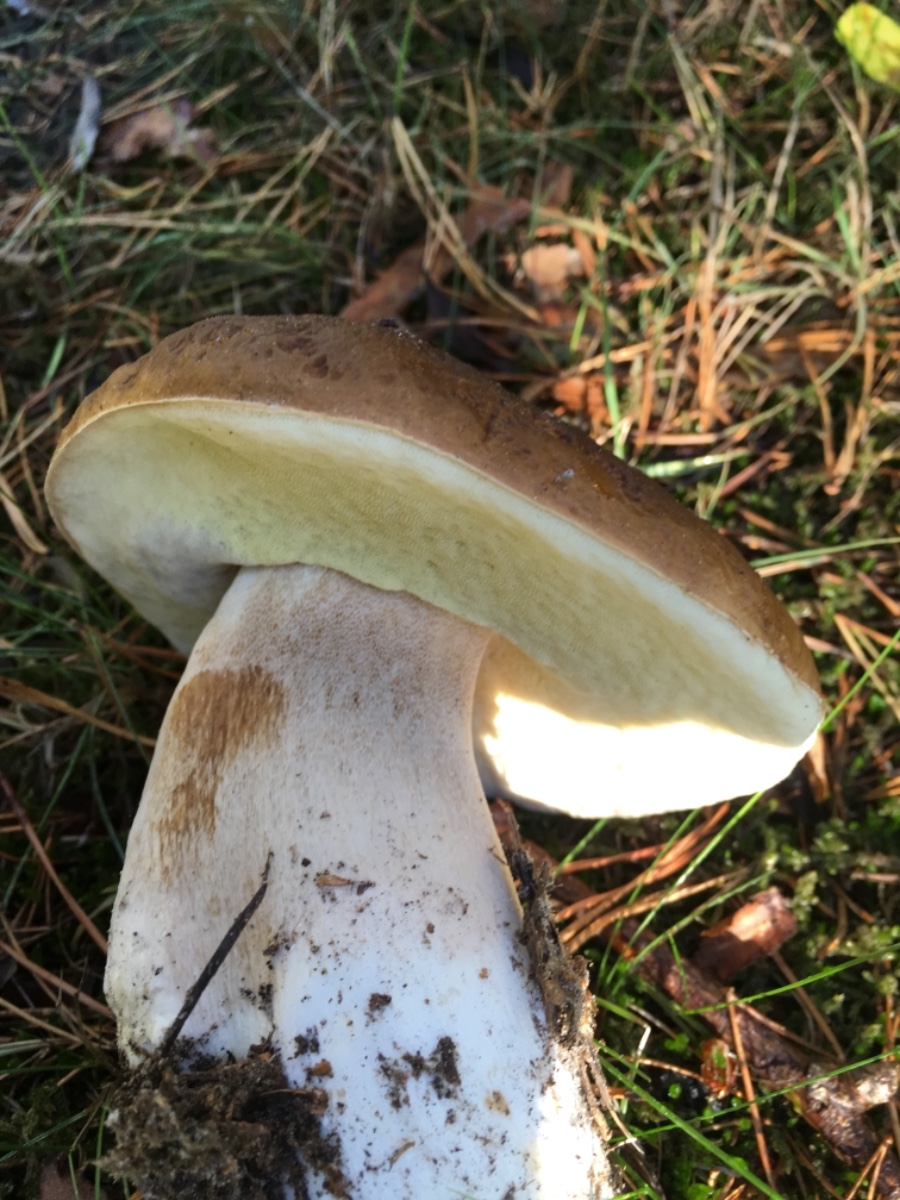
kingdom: Fungi
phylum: Basidiomycota
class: Agaricomycetes
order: Boletales
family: Boletaceae
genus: Boletus
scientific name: Boletus edulis
